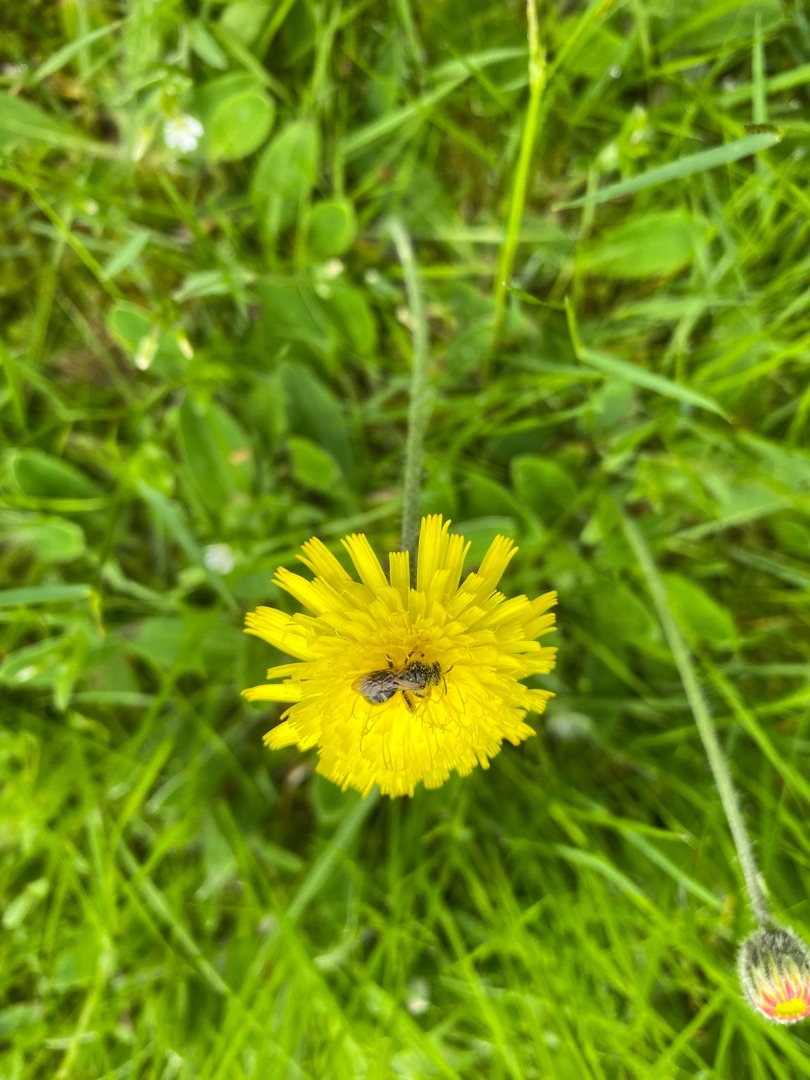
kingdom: Plantae
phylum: Tracheophyta
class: Magnoliopsida
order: Asterales
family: Asteraceae
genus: Pilosella
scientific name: Pilosella officinarum
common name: Håret høgeurt
